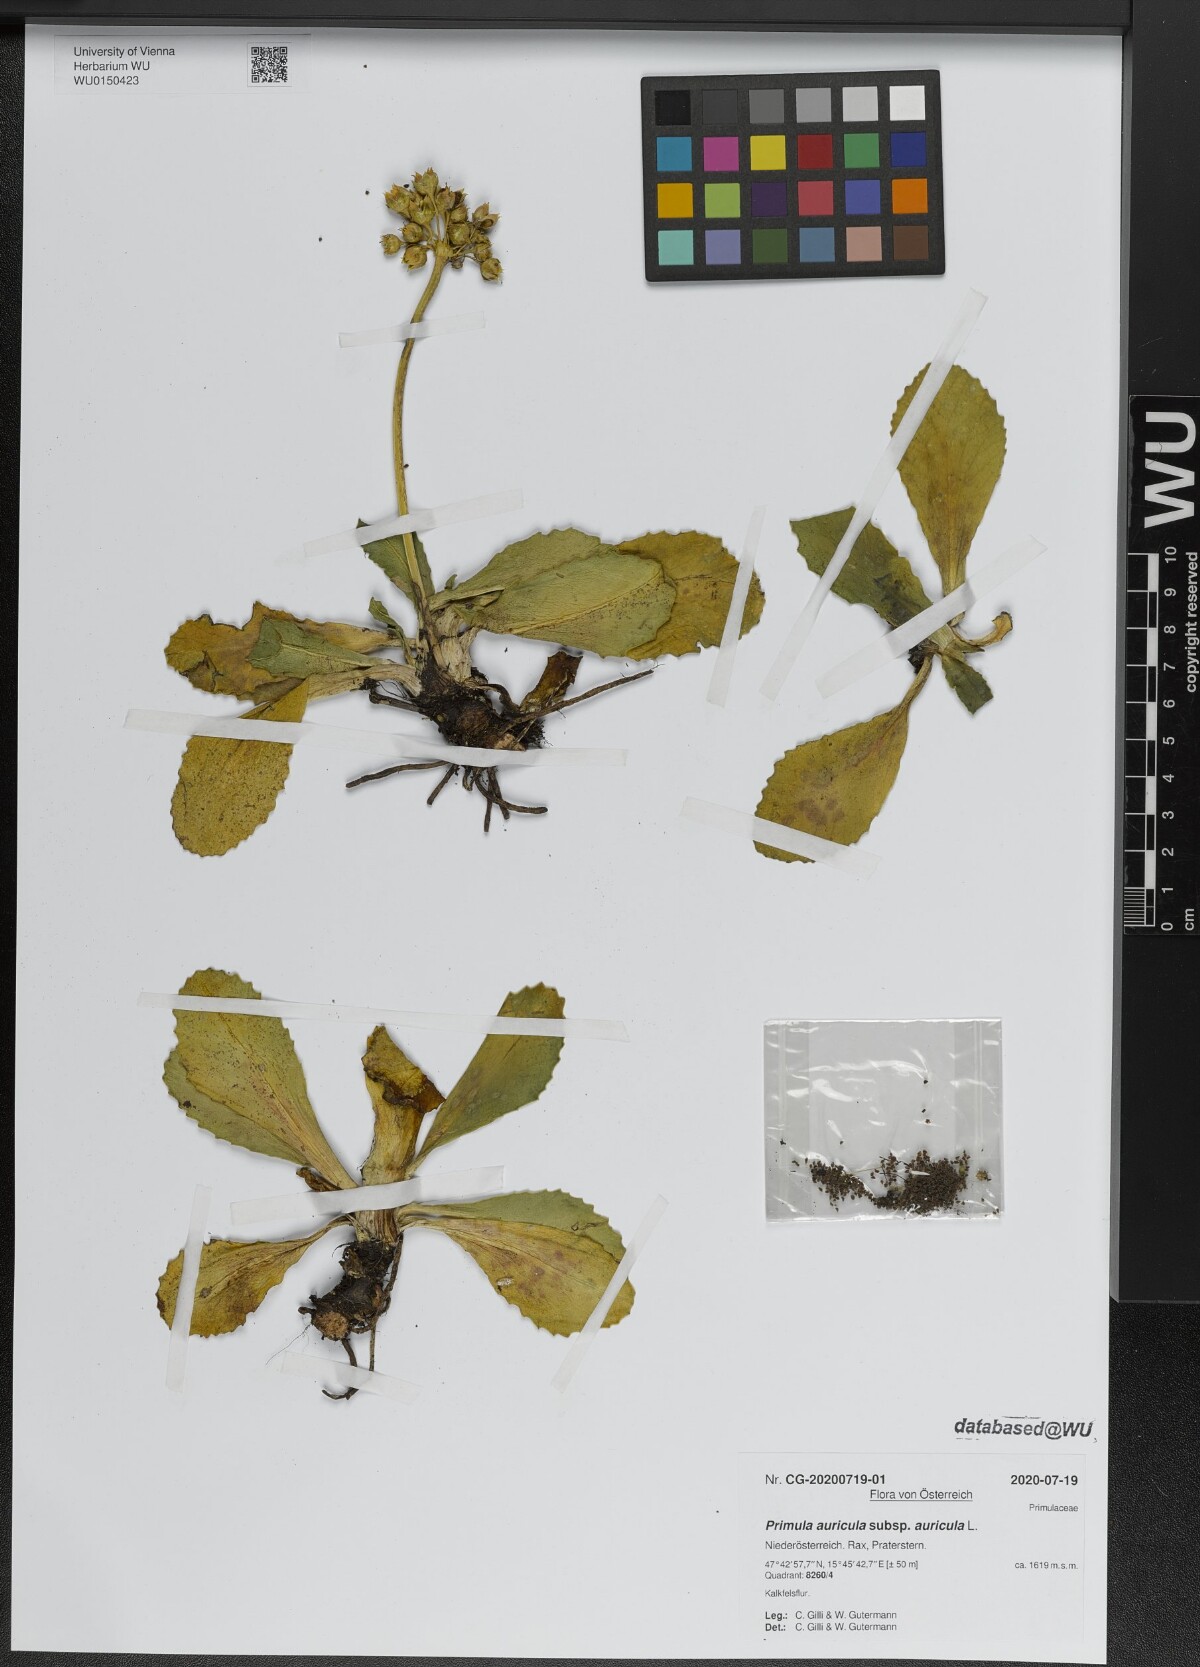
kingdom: Plantae
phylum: Tracheophyta
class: Magnoliopsida
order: Ericales
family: Primulaceae
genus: Primula
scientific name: Primula auricula
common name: Auricula
